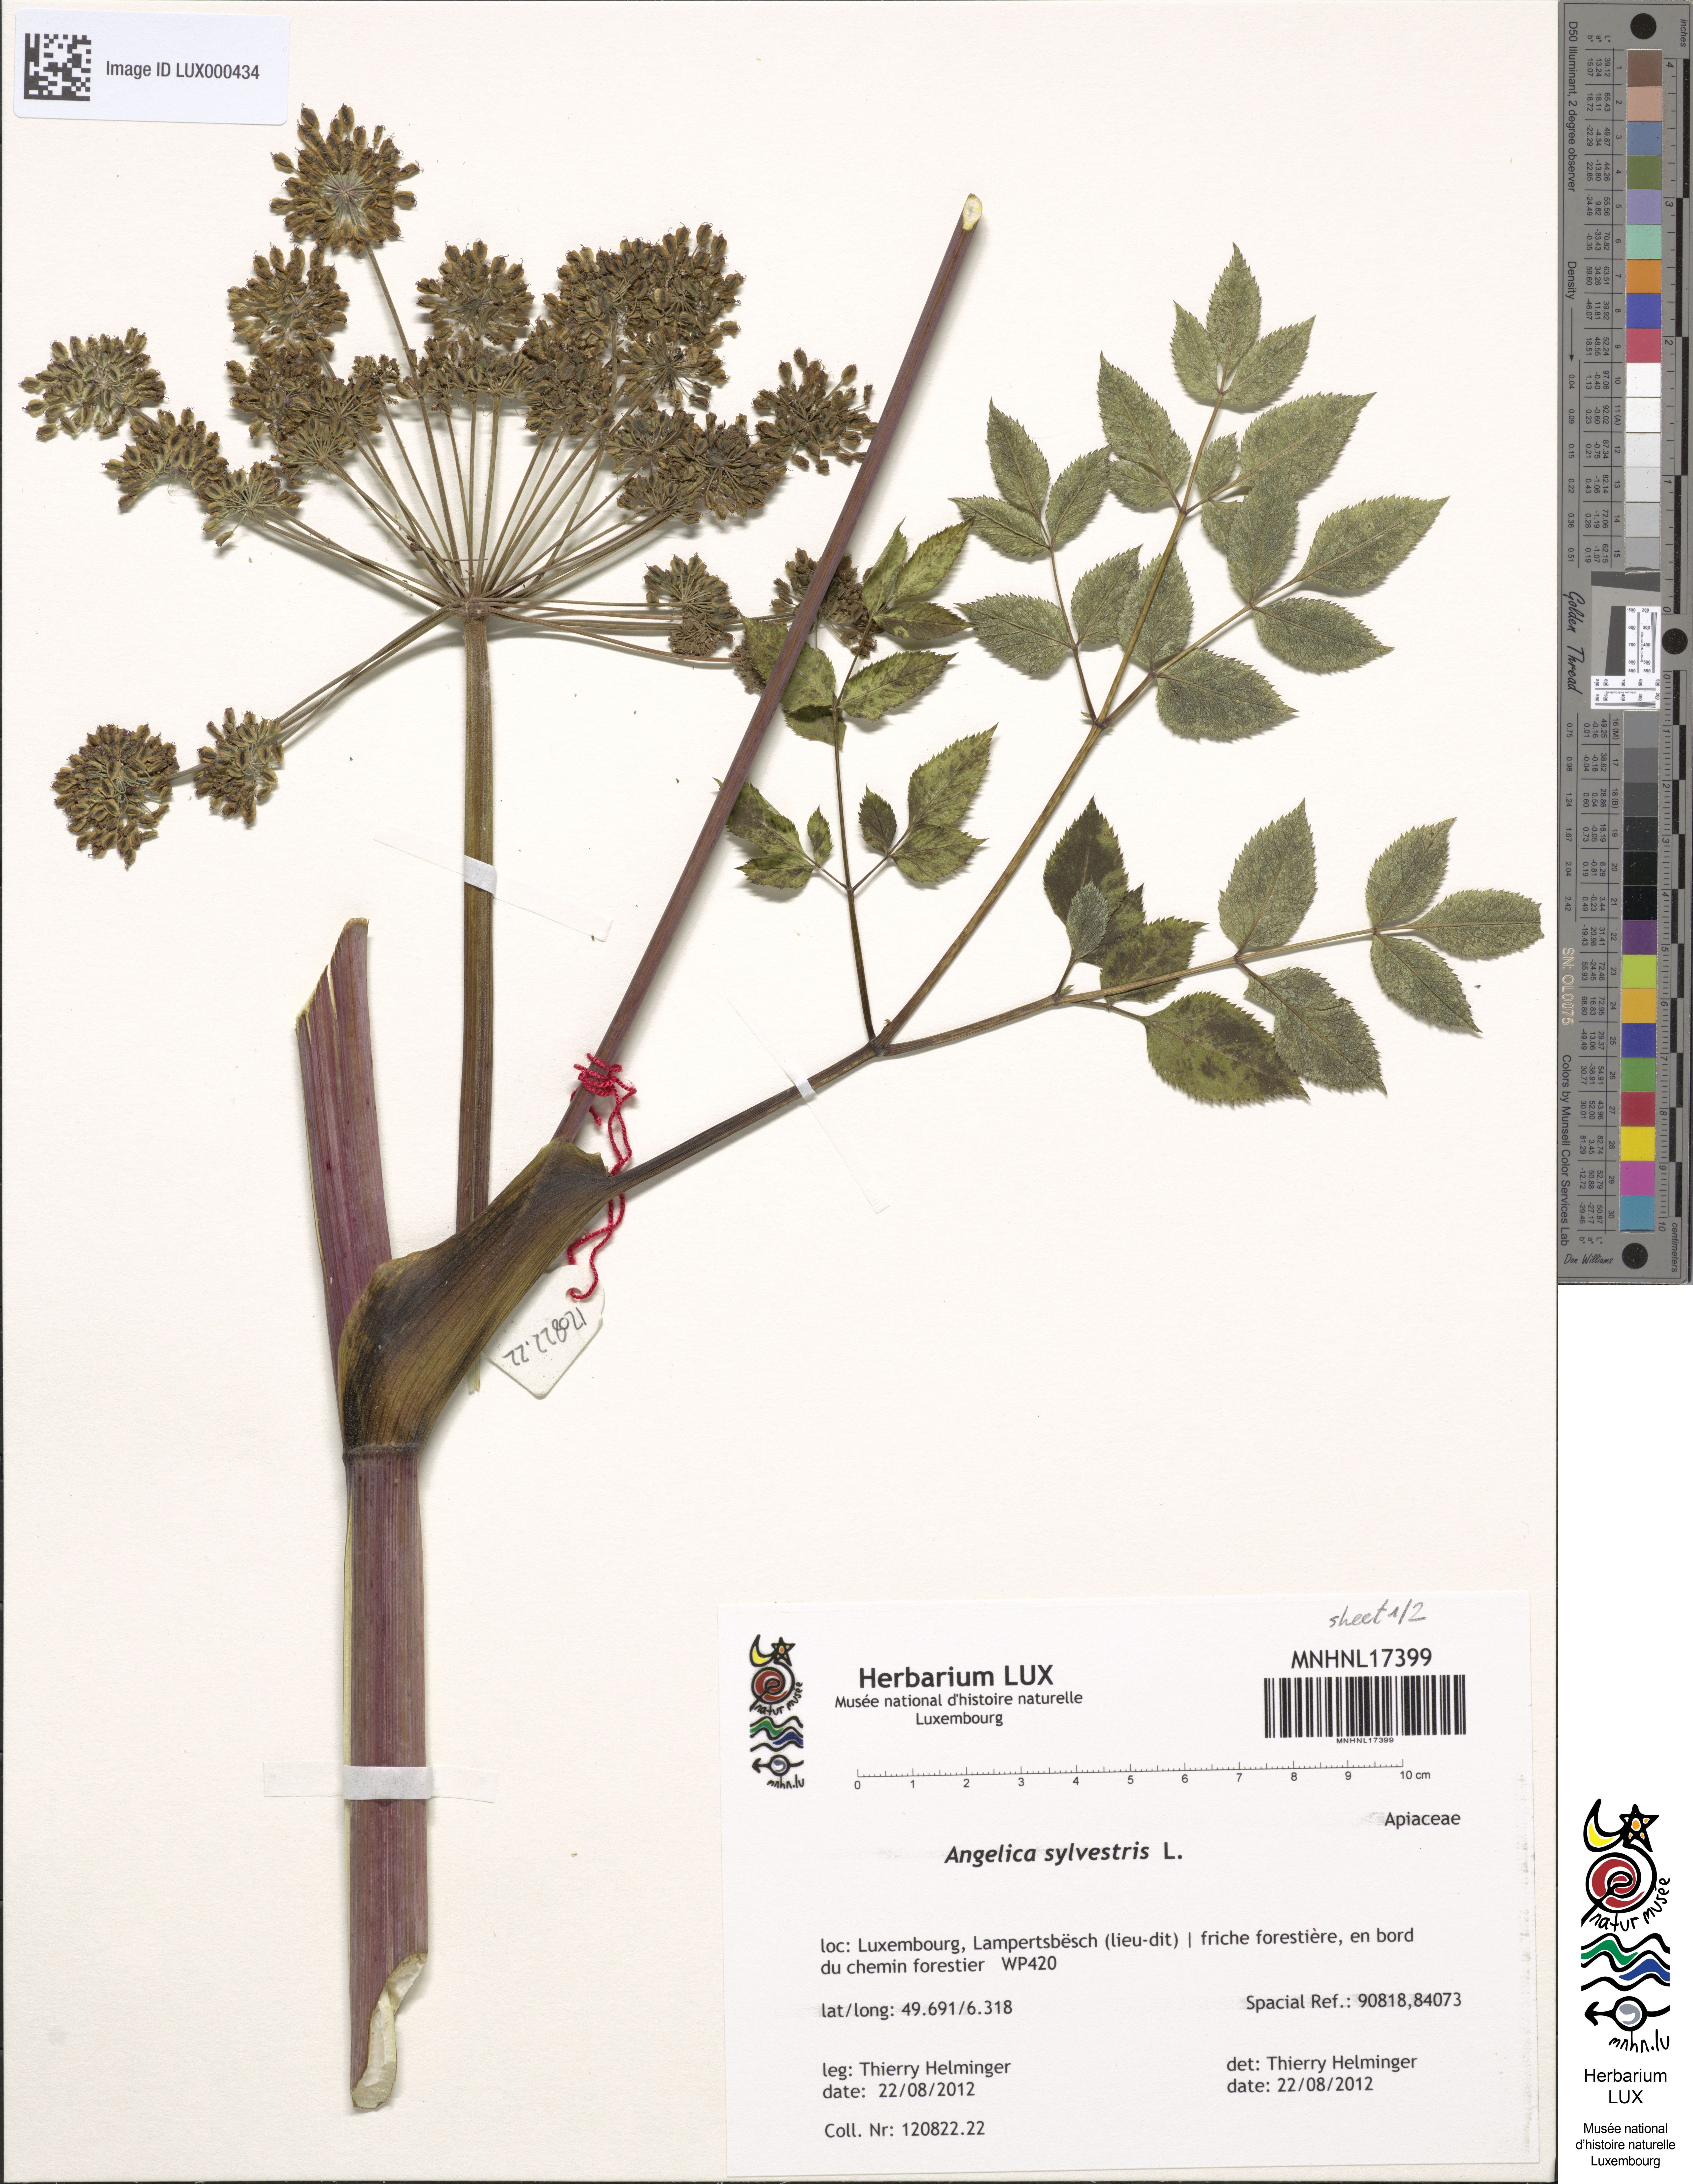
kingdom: Plantae
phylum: Tracheophyta
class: Magnoliopsida
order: Apiales
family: Apiaceae
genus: Angelica
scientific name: Angelica sylvestris
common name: Wild angelica
